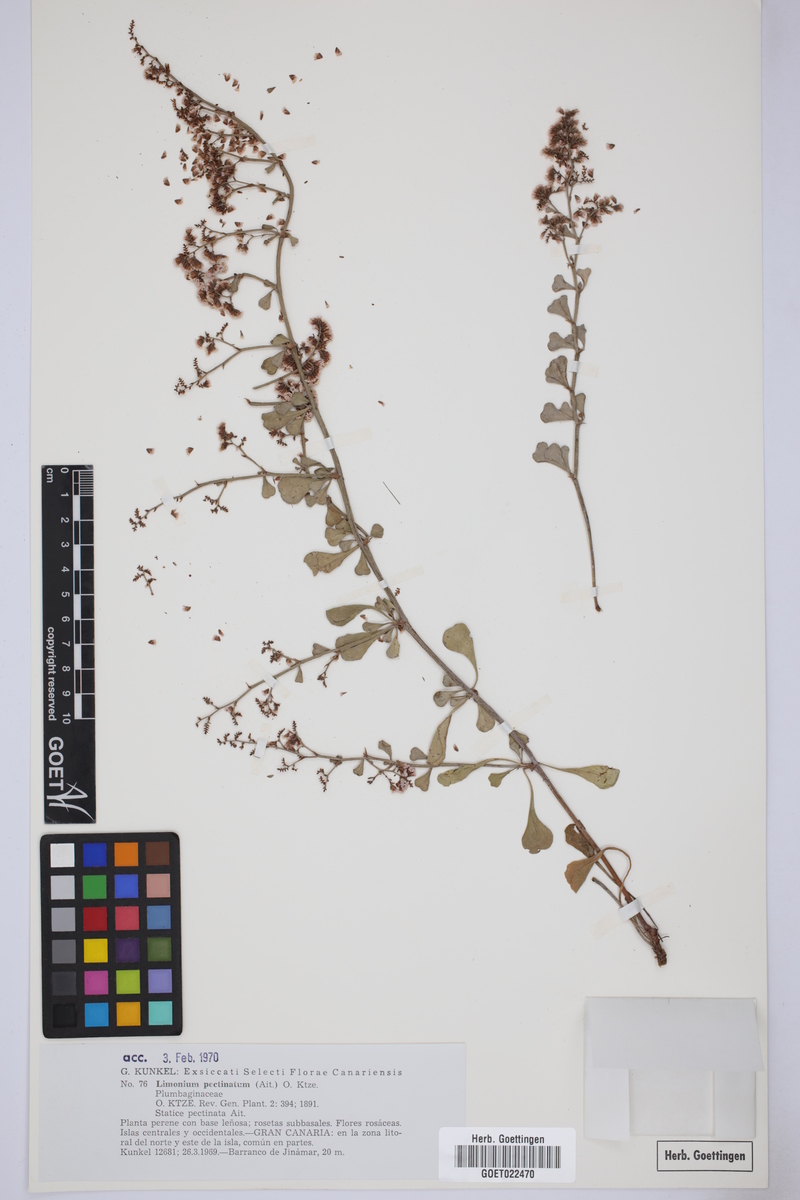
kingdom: Plantae
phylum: Tracheophyta
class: Magnoliopsida
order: Caryophyllales
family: Plumbaginaceae
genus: Limonium
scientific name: Limonium pectinatum
